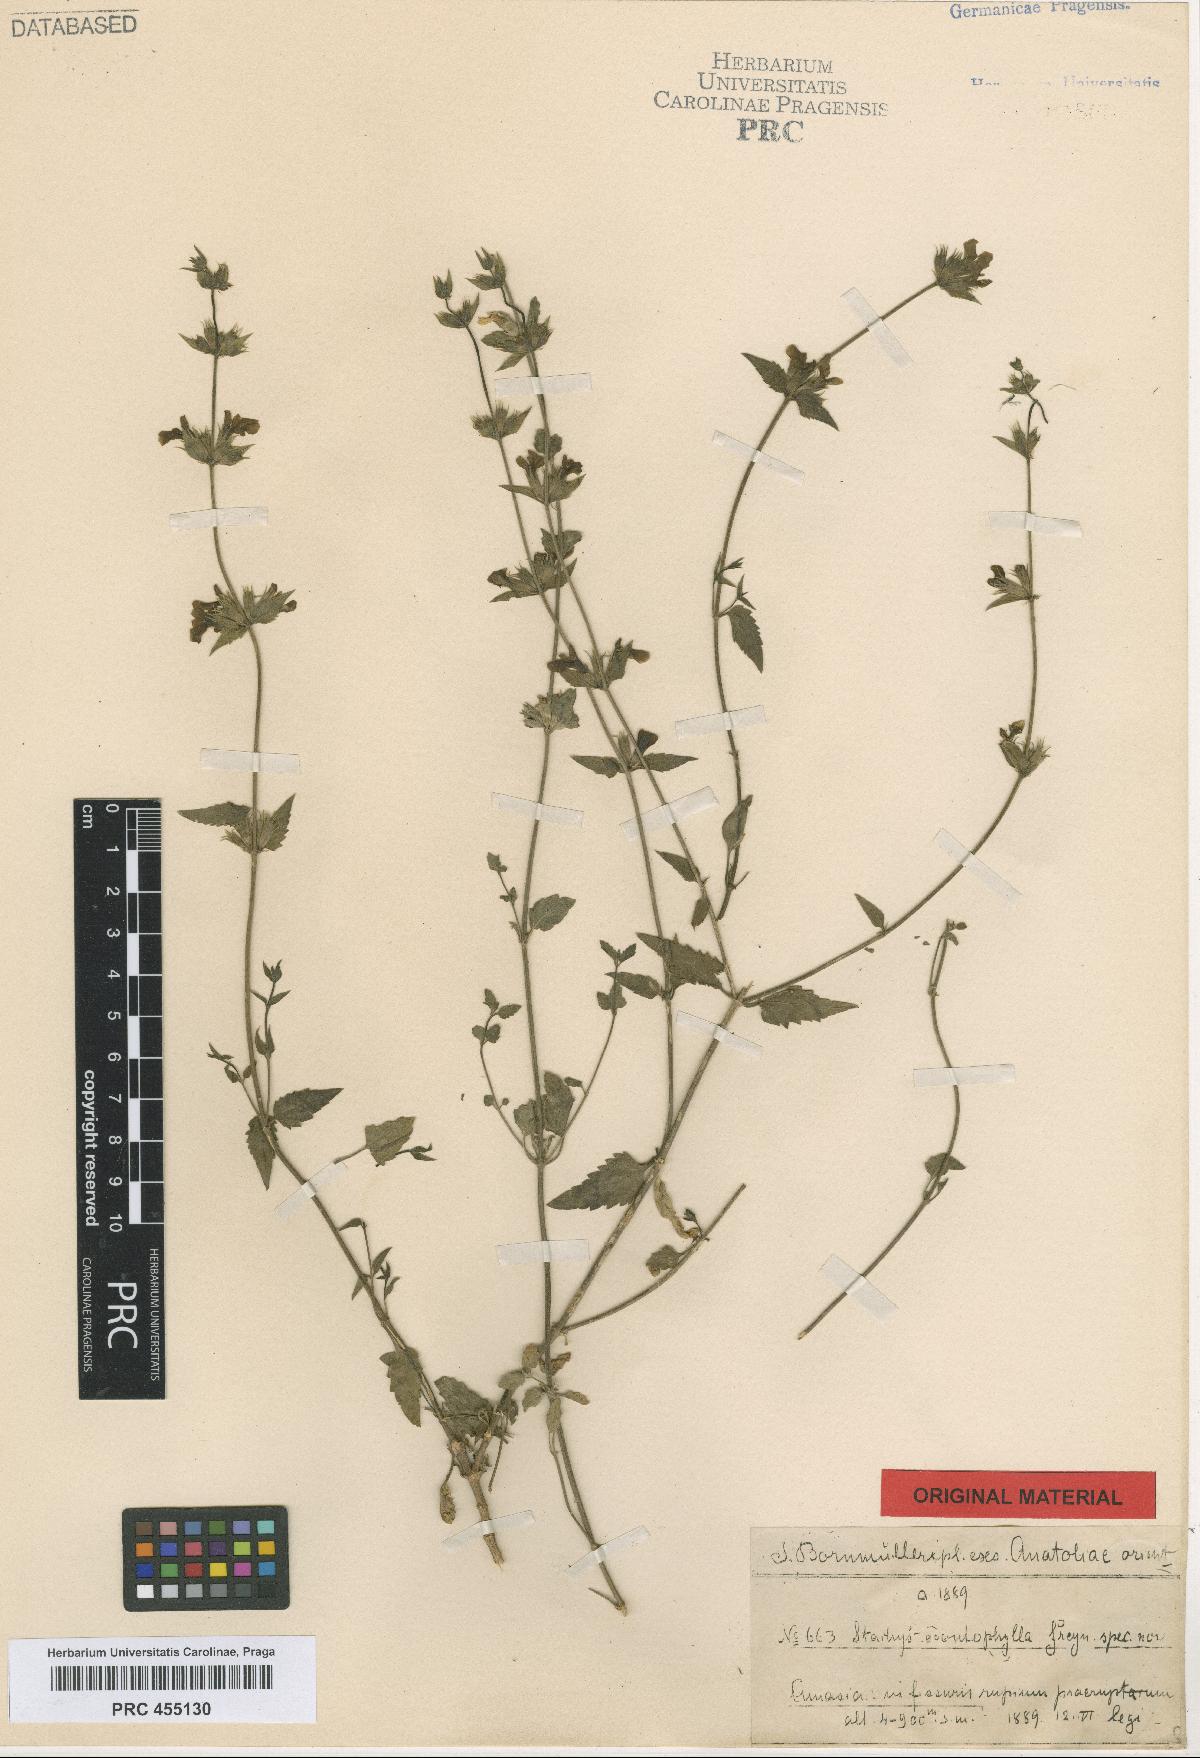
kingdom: Plantae
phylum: Tracheophyta
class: Magnoliopsida
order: Lamiales
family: Lamiaceae
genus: Stachys
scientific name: Stachys viscosa
